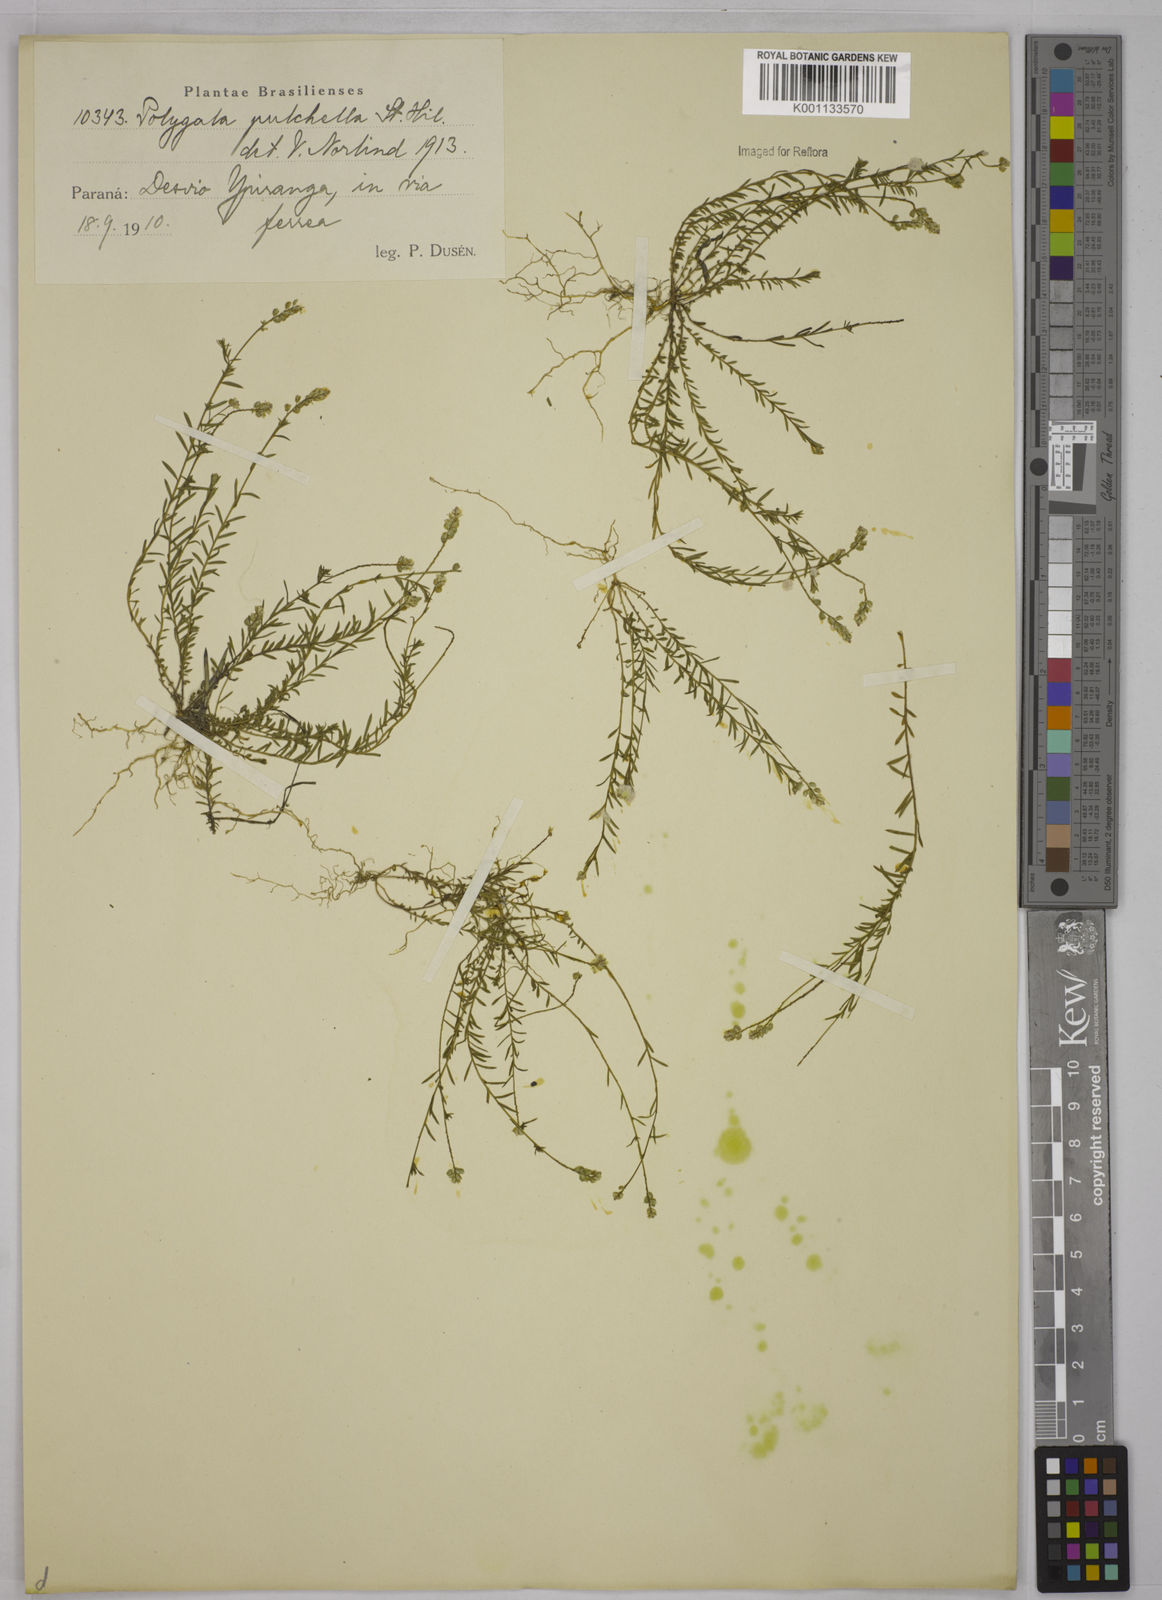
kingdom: Plantae
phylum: Tracheophyta
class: Magnoliopsida
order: Fabales
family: Polygalaceae
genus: Polygala
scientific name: Polygala pulchella
